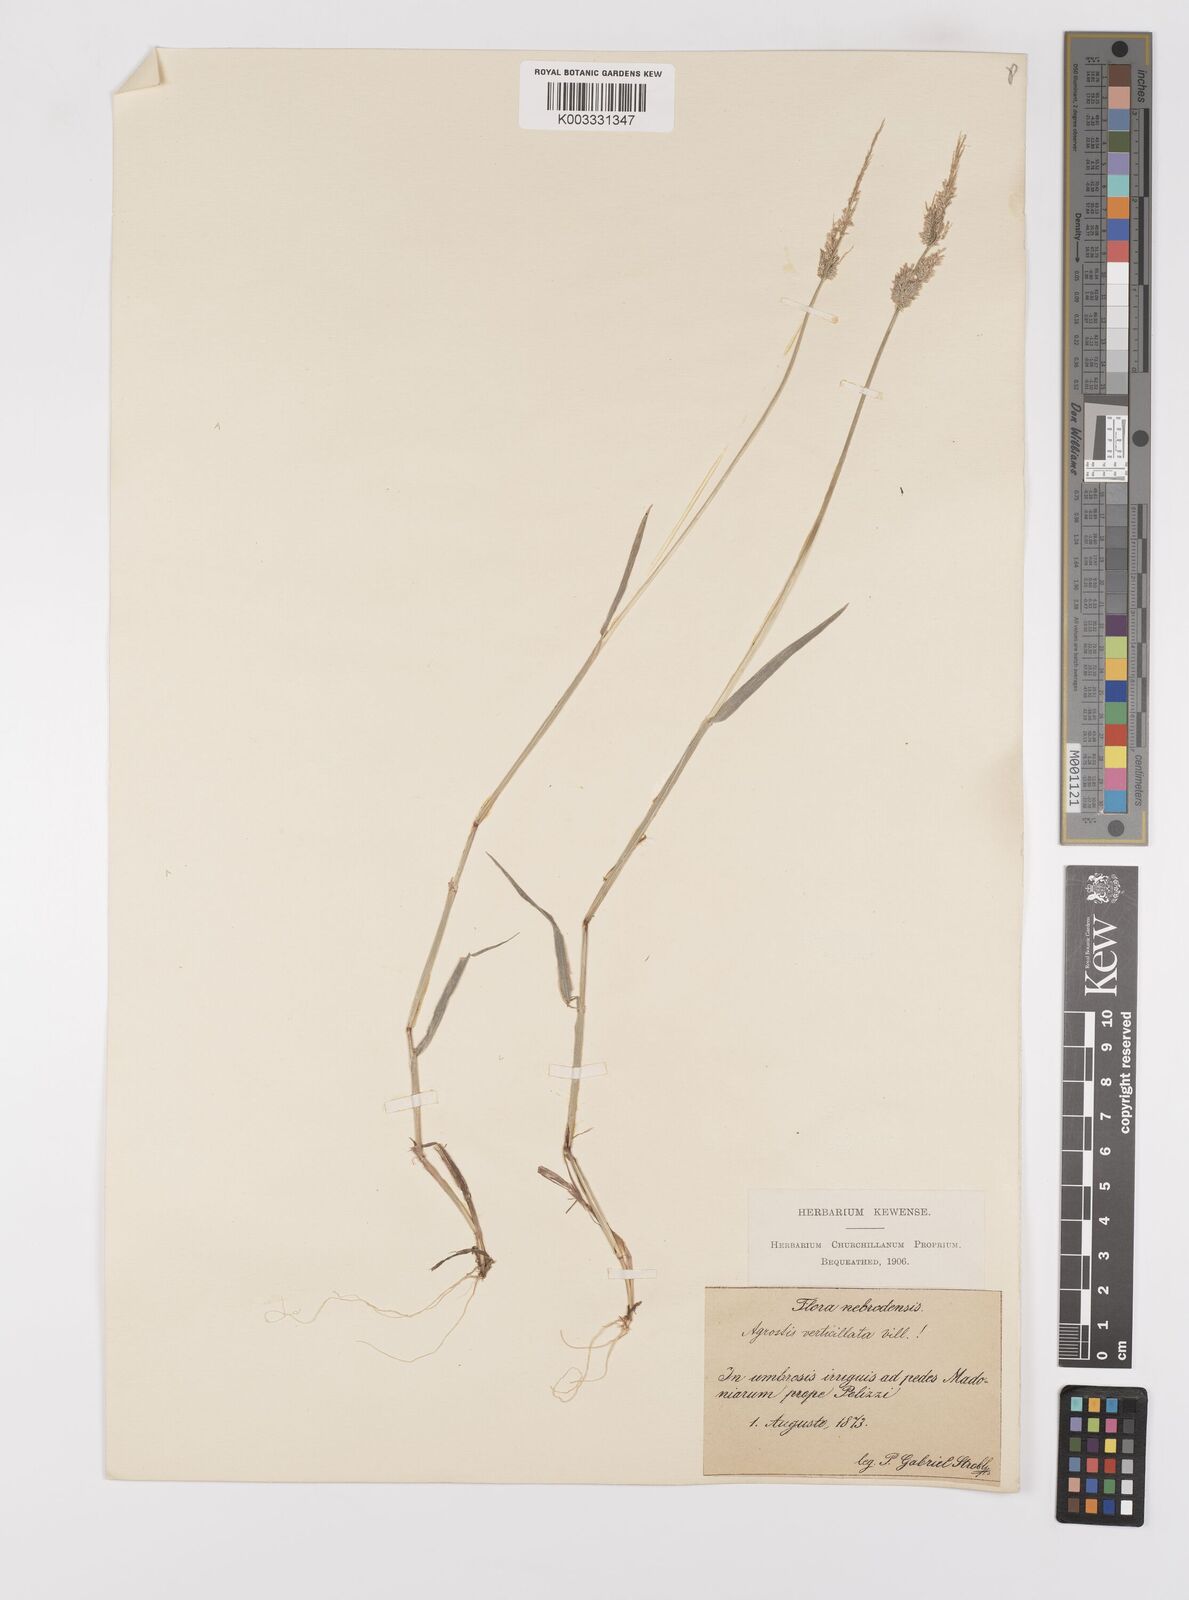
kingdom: Plantae
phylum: Tracheophyta
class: Liliopsida
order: Poales
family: Poaceae
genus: Polypogon
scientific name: Polypogon viridis
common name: Water bent
